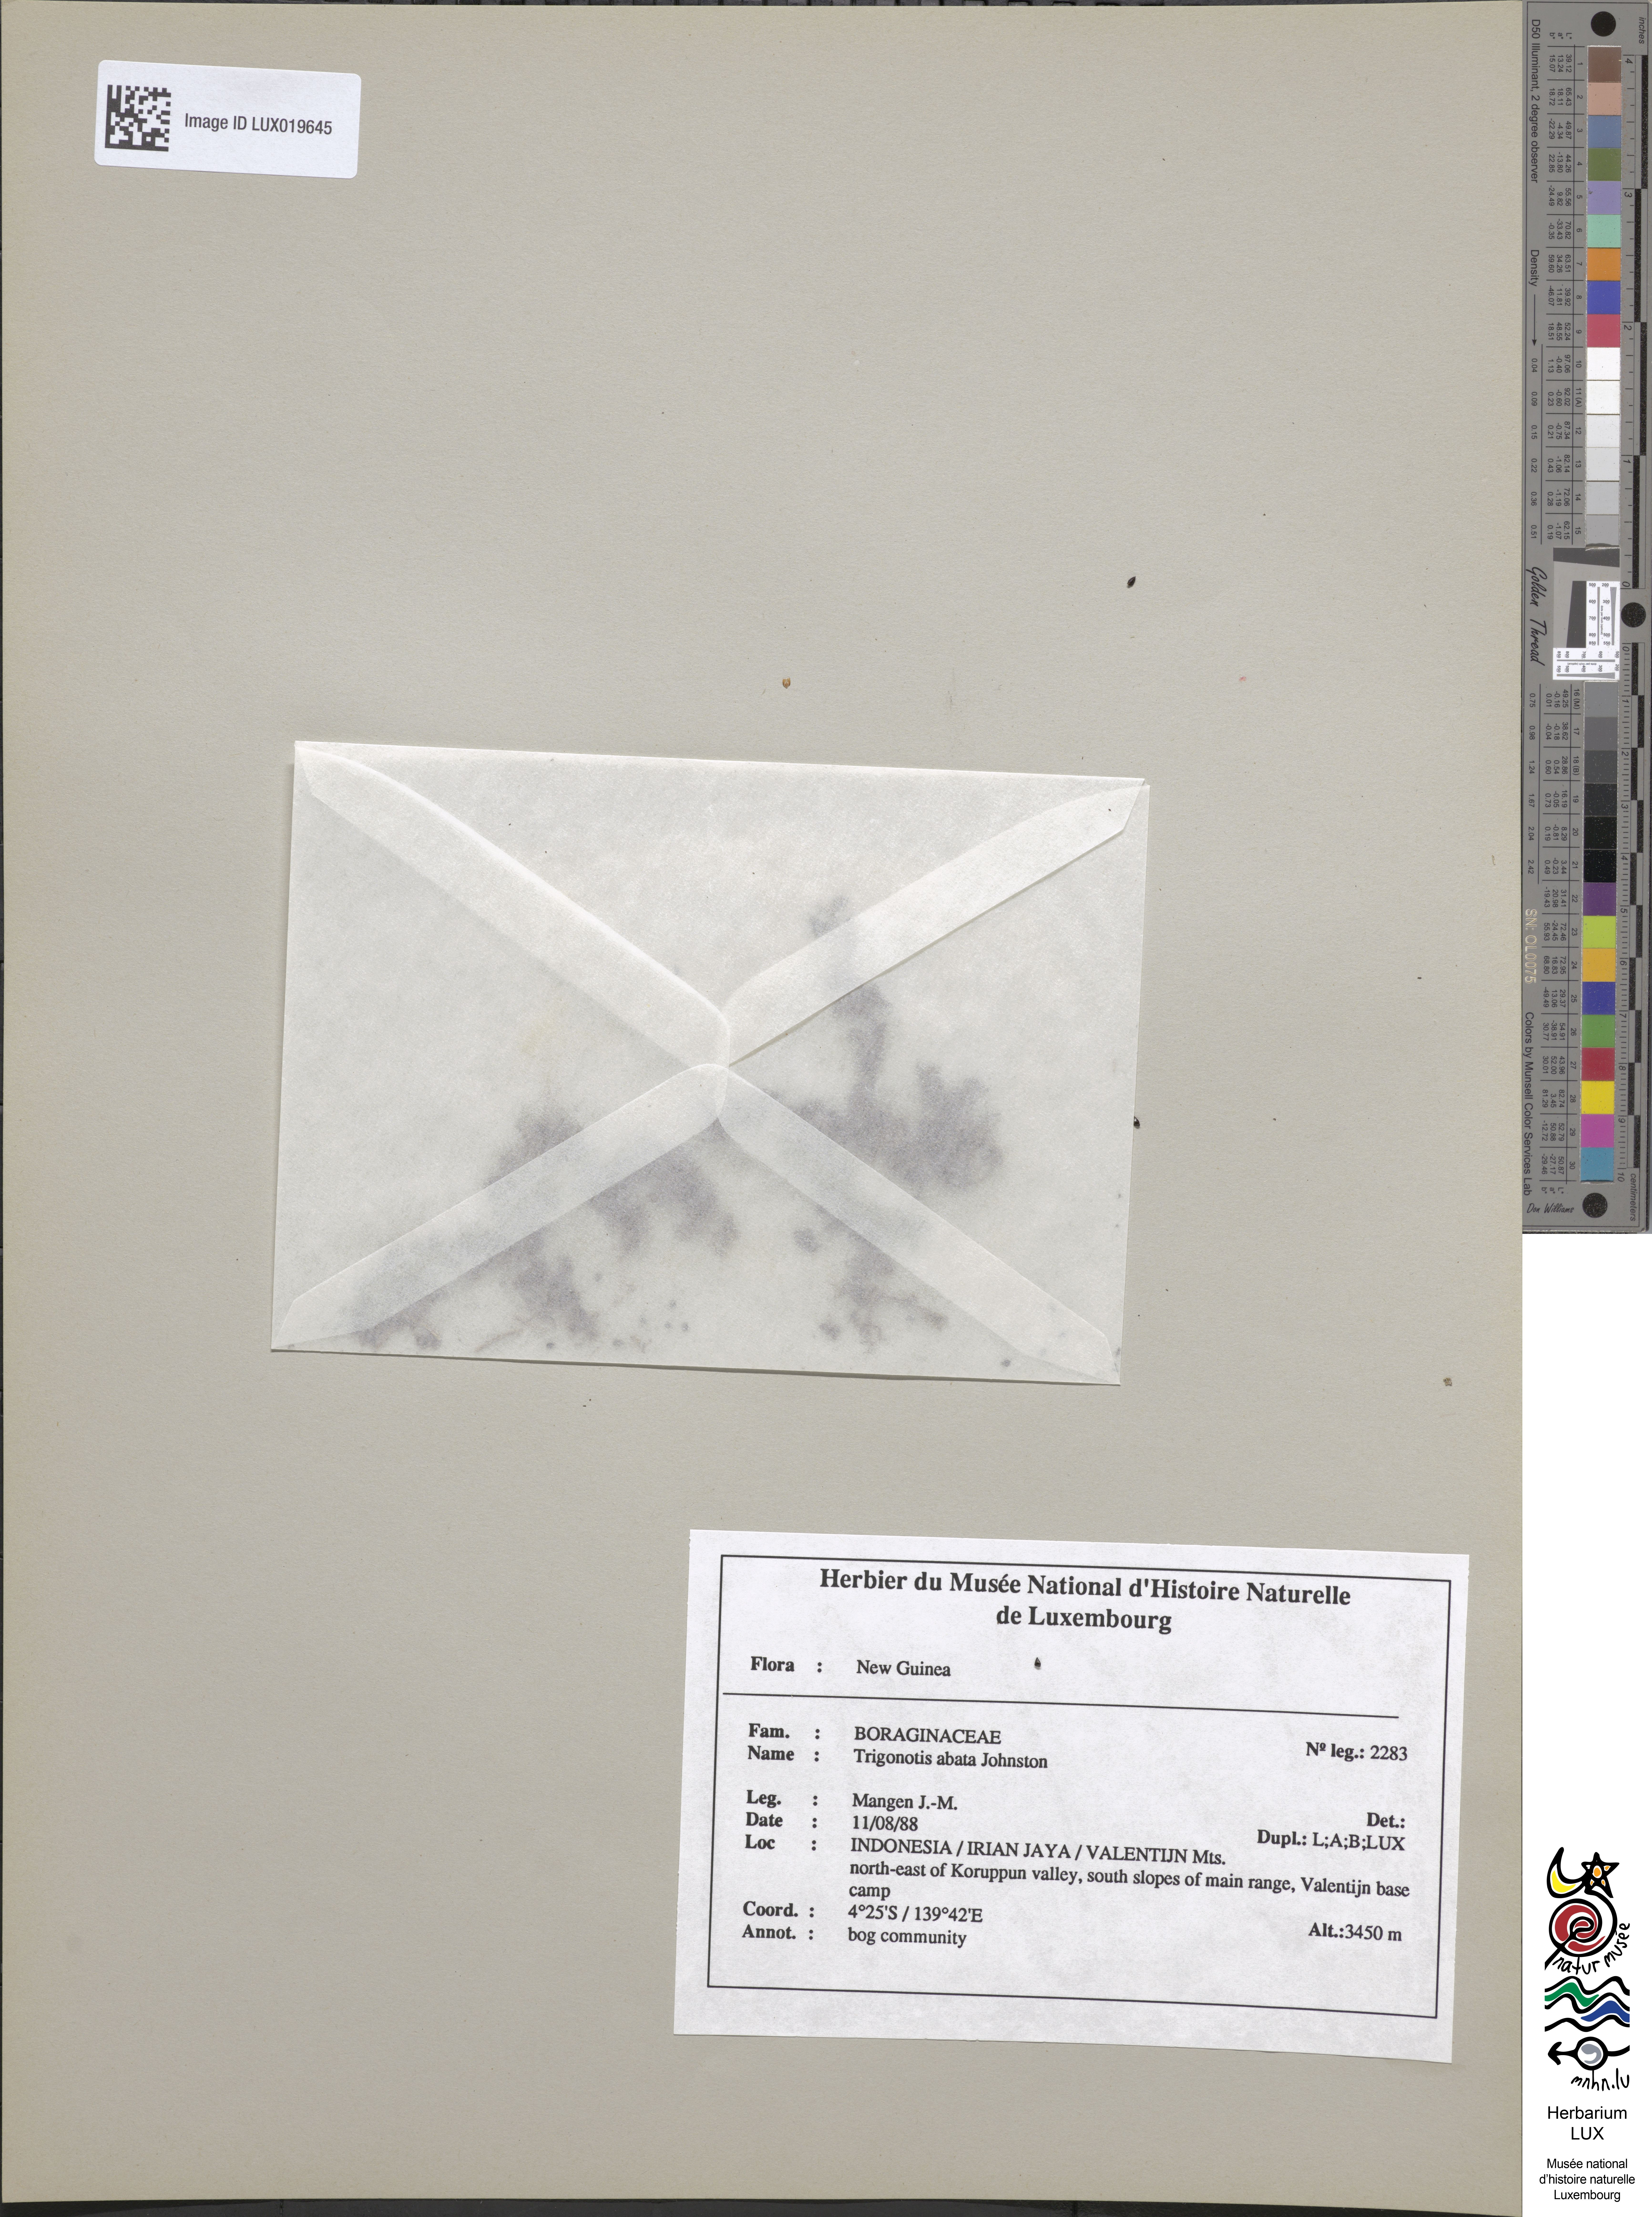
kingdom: Plantae
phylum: Tracheophyta
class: Magnoliopsida
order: Boraginales
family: Boraginaceae
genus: Trigonotis
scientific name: Trigonotis abata
